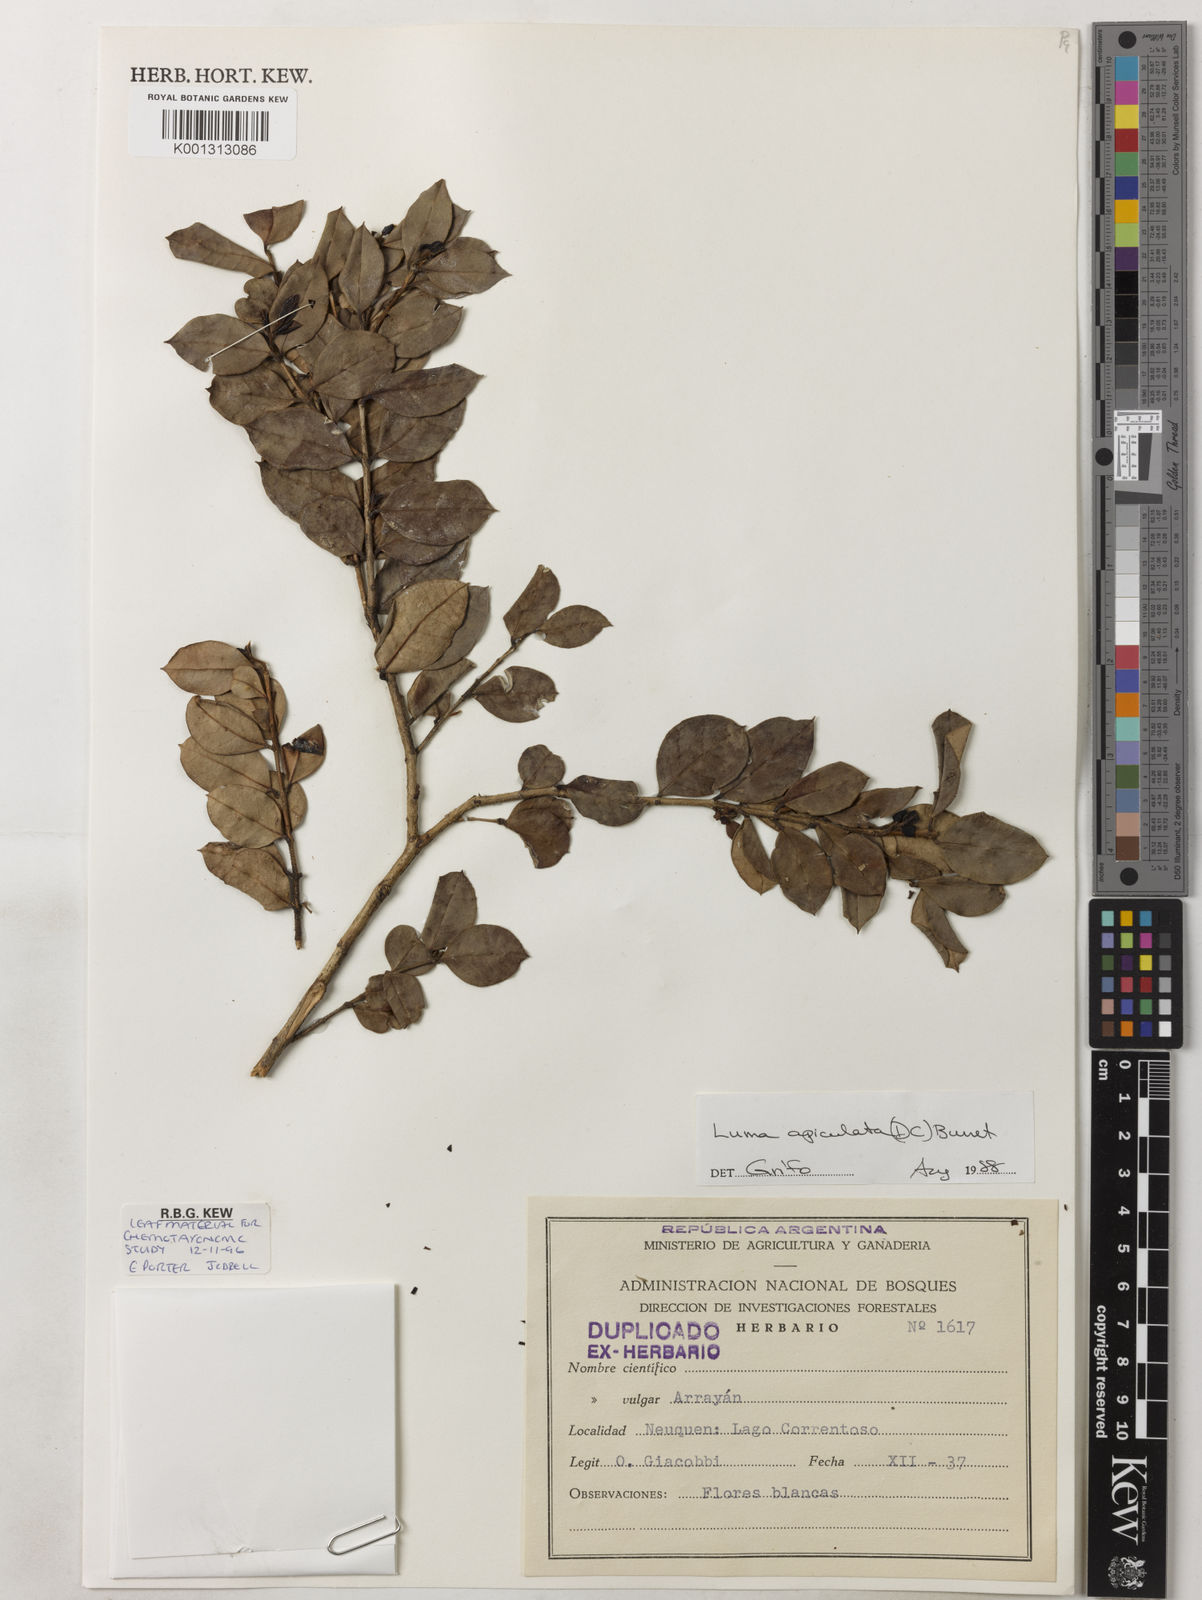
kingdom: Plantae
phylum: Tracheophyta
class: Magnoliopsida
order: Myrtales
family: Myrtaceae
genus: Luma
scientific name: Luma apiculata
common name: Chilean myrtle
